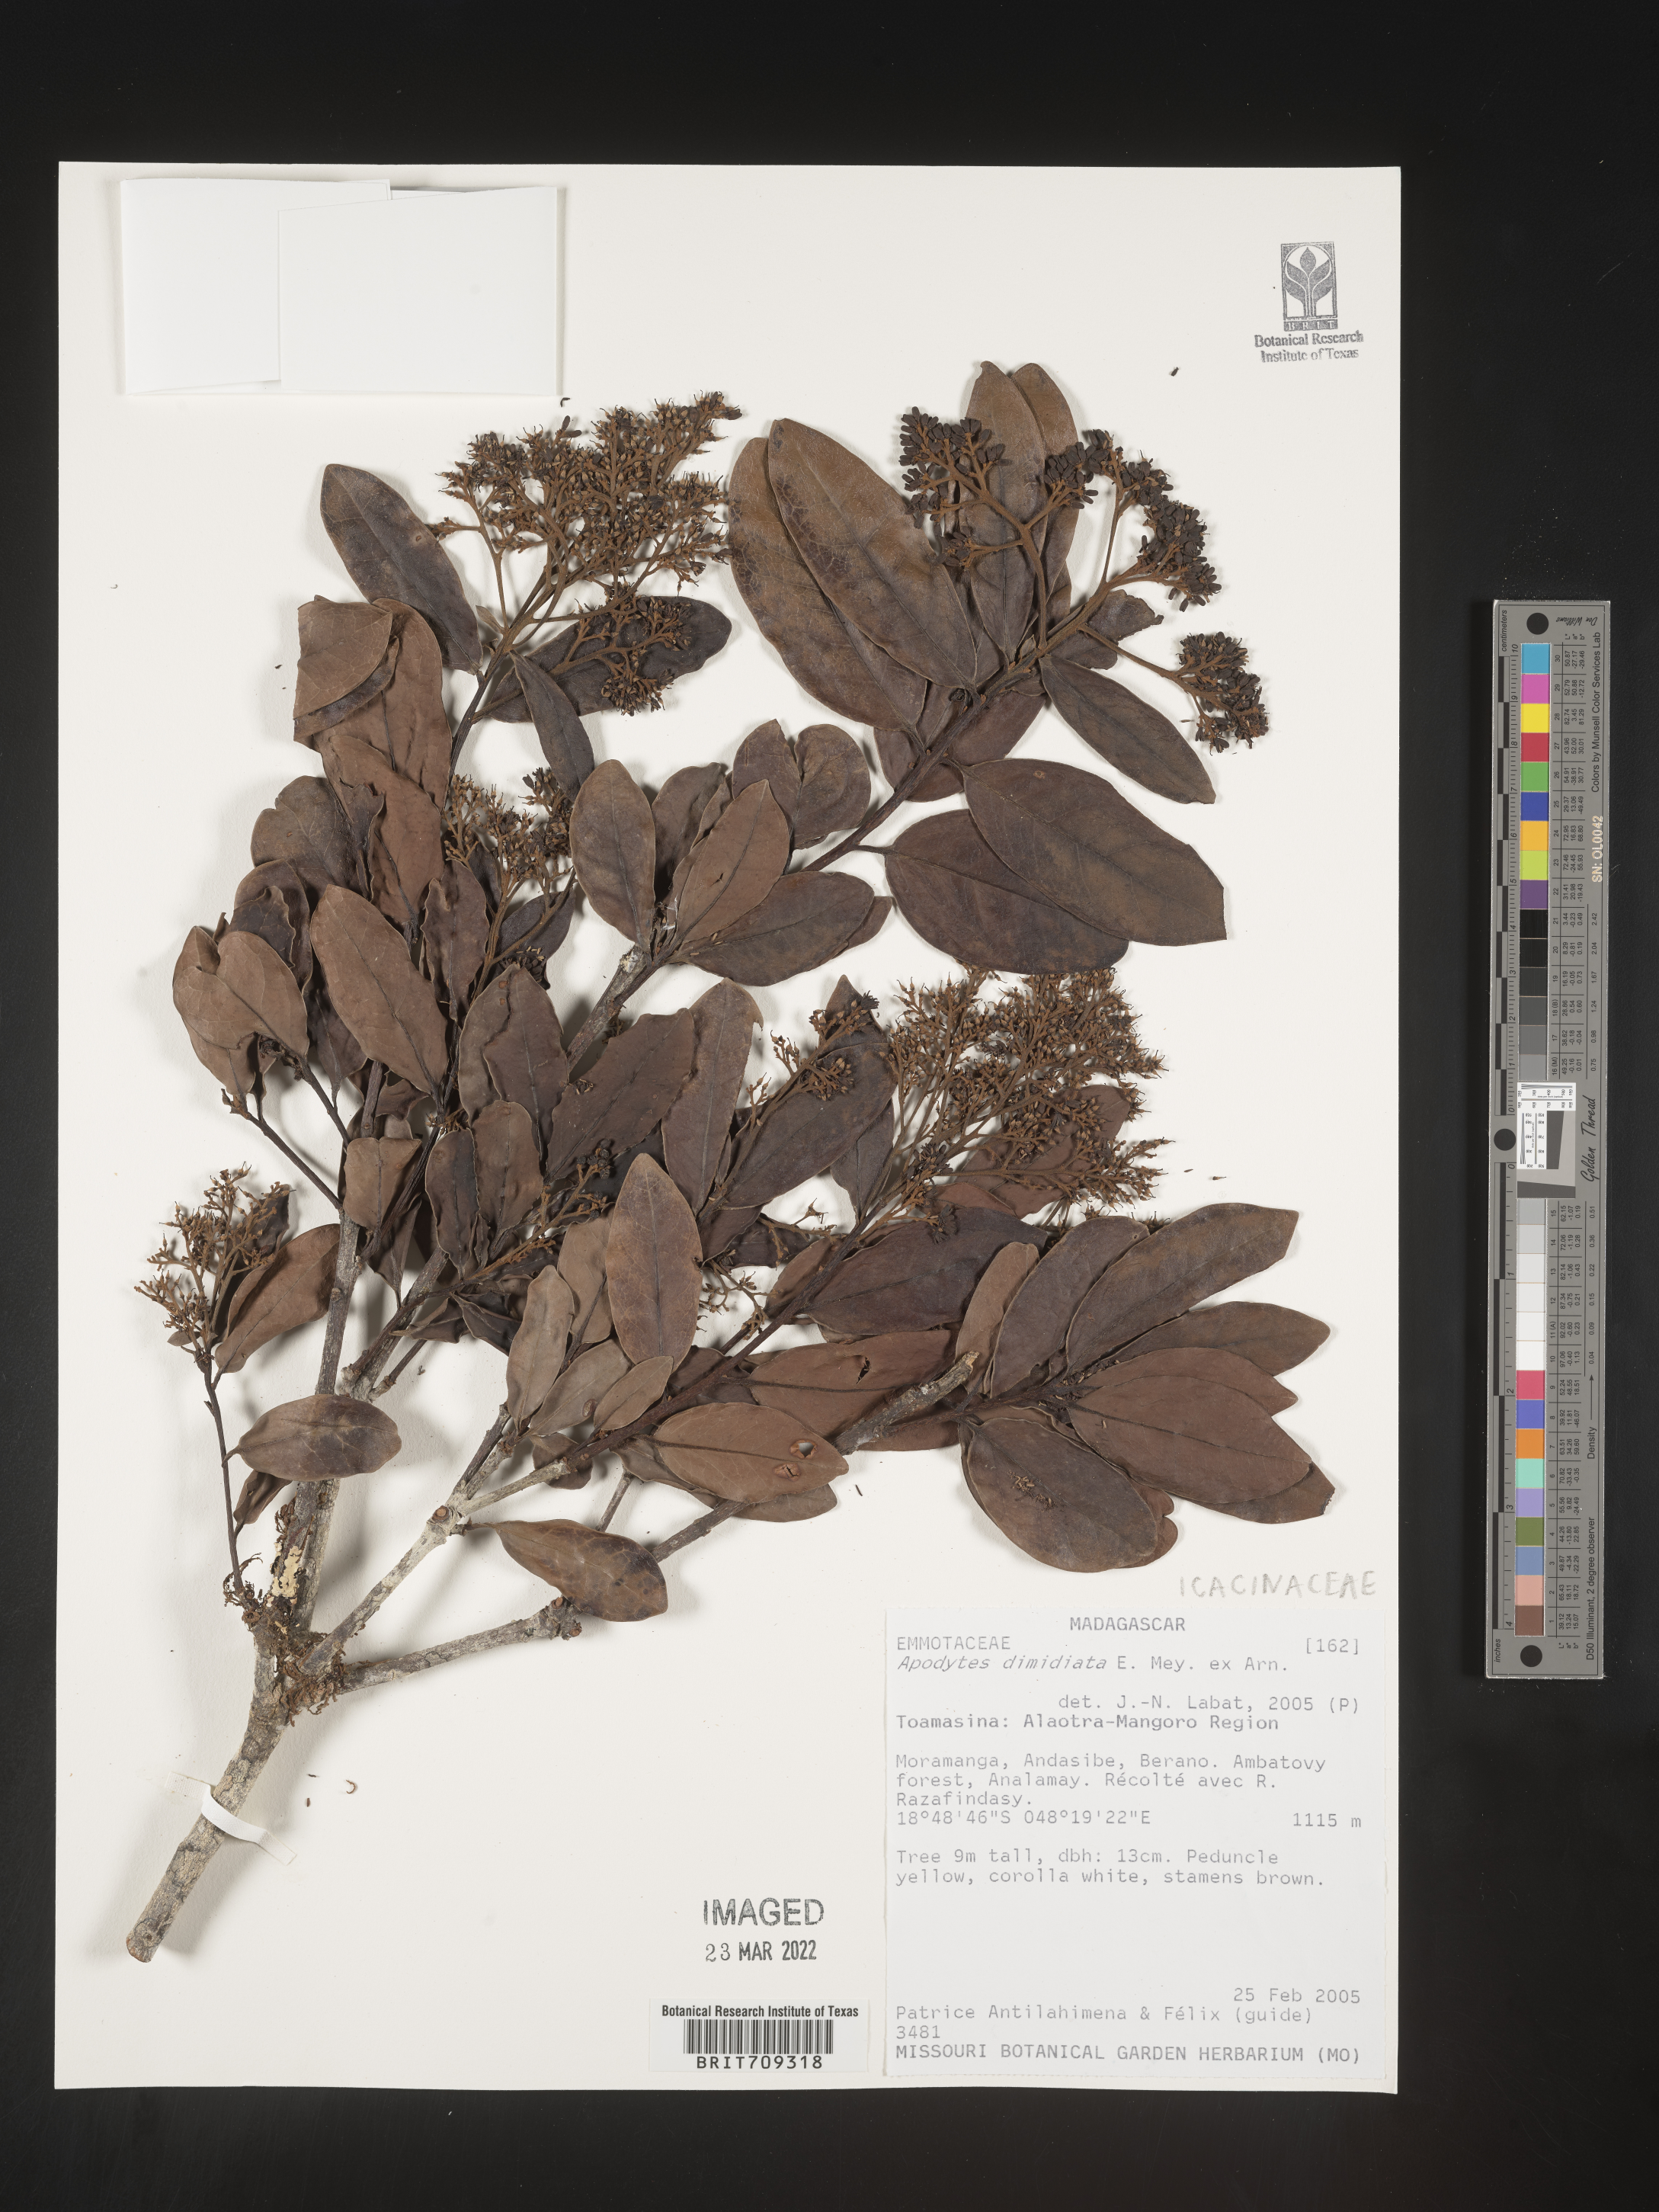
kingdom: Plantae
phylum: Tracheophyta
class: Magnoliopsida
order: Icacinales
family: Icacinaceae
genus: Apodytes
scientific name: Apodytes
